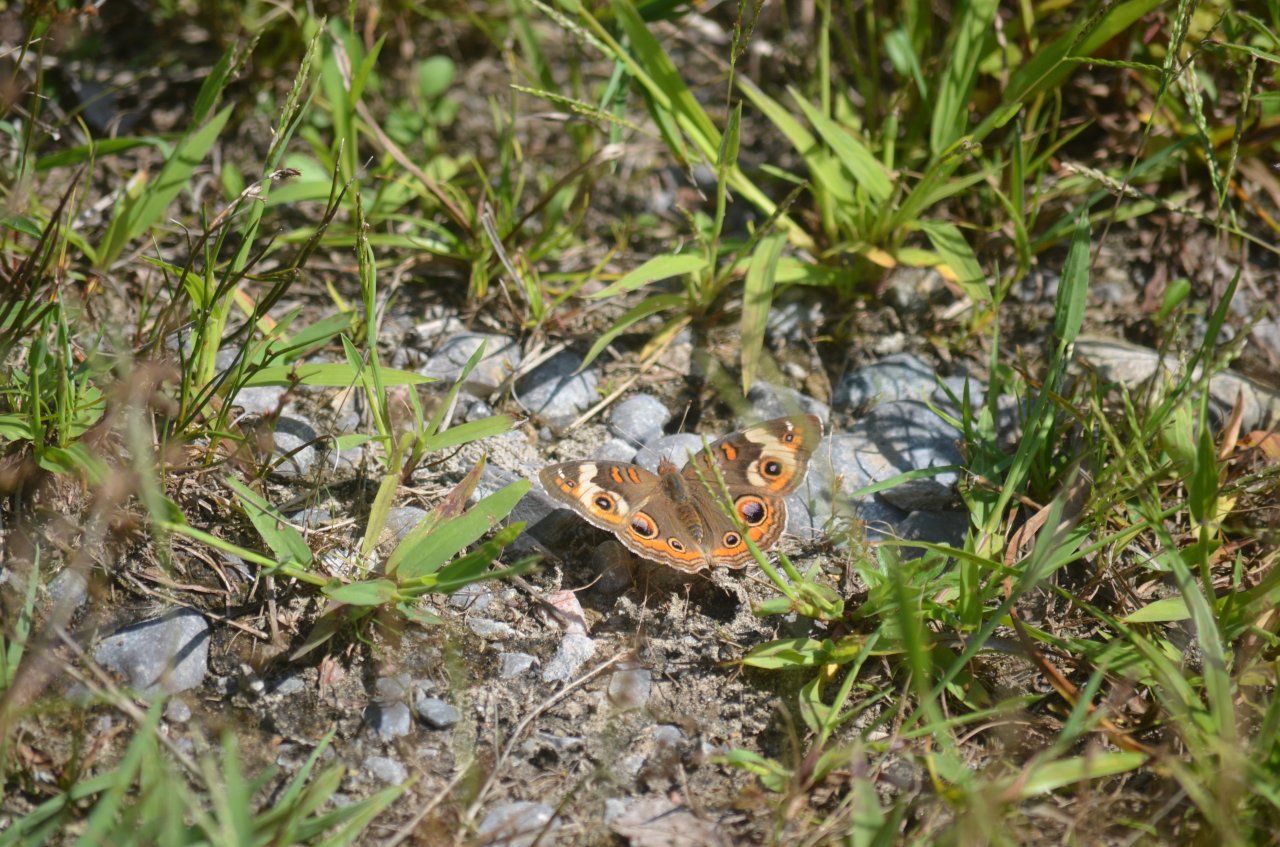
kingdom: Animalia
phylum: Arthropoda
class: Insecta
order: Lepidoptera
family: Nymphalidae
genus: Junonia
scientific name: Junonia coenia
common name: Common Buckeye
